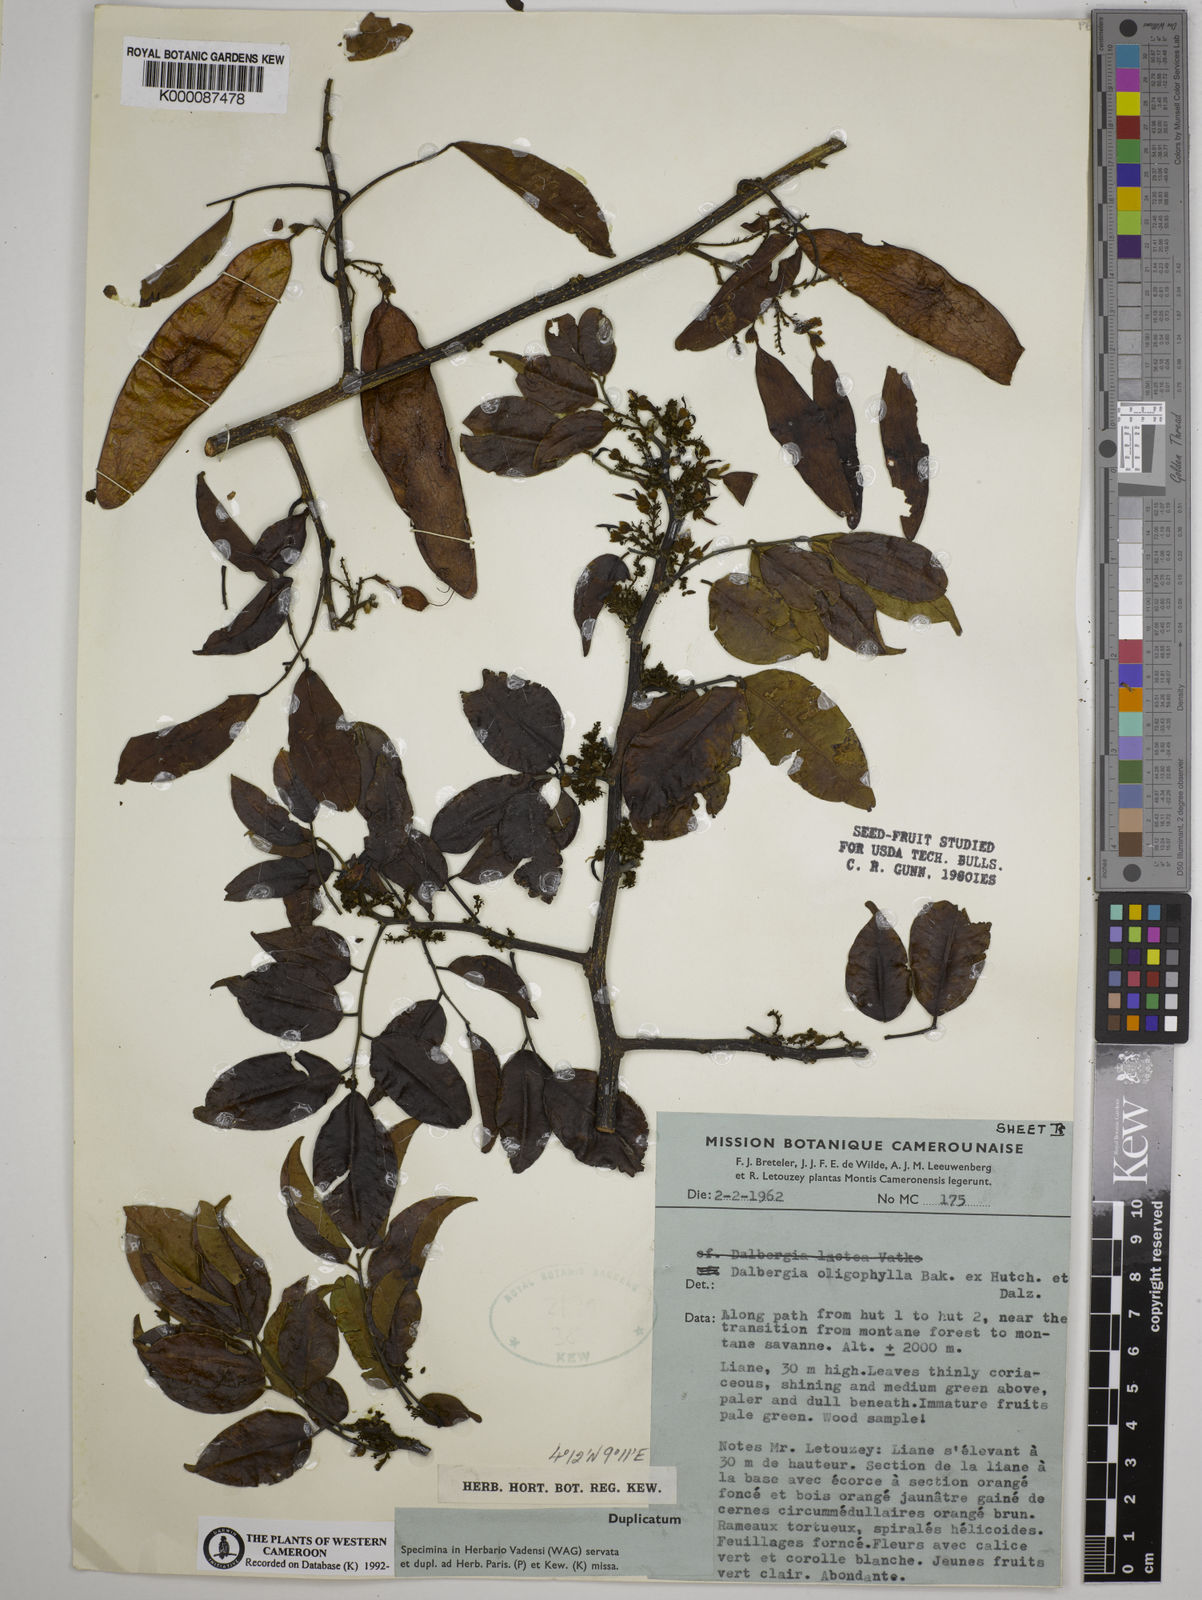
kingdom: Plantae
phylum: Tracheophyta
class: Magnoliopsida
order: Fabales
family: Fabaceae
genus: Dalbergia
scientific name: Dalbergia oligophylla
